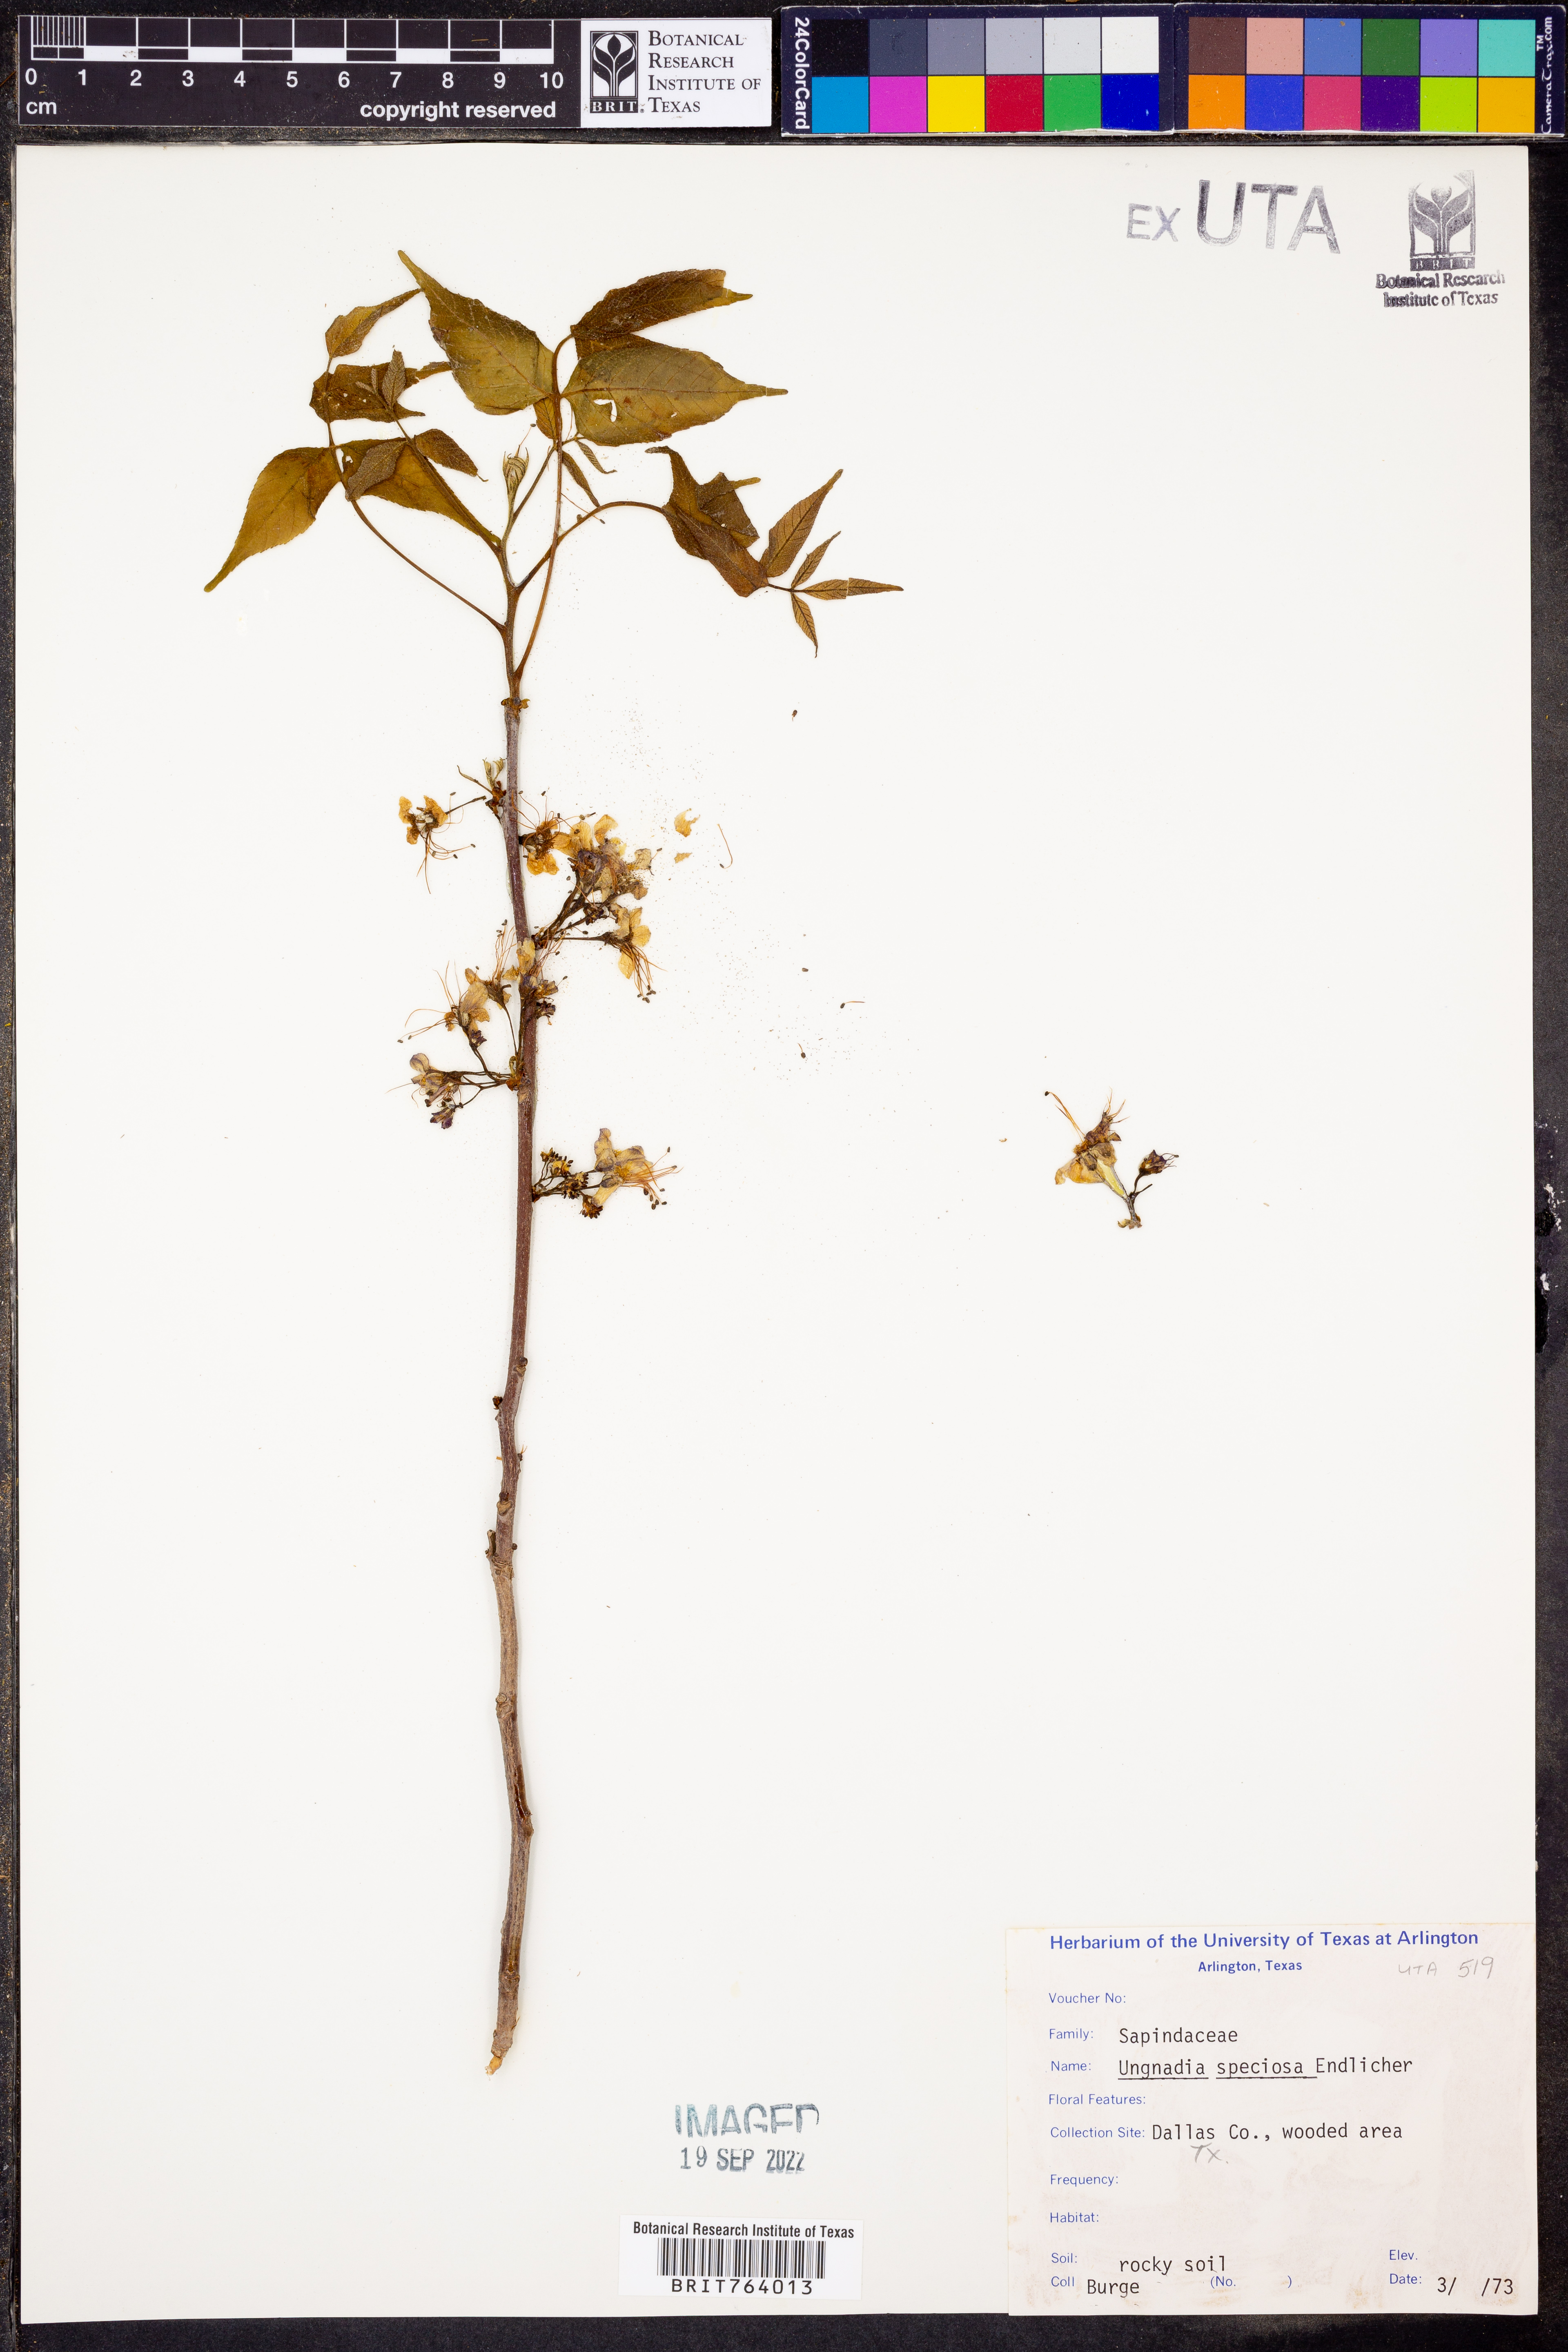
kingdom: Plantae
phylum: Tracheophyta
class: Magnoliopsida
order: Sapindales
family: Sapindaceae
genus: Ungnadia
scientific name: Ungnadia speciosa
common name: Texas-buckeye
